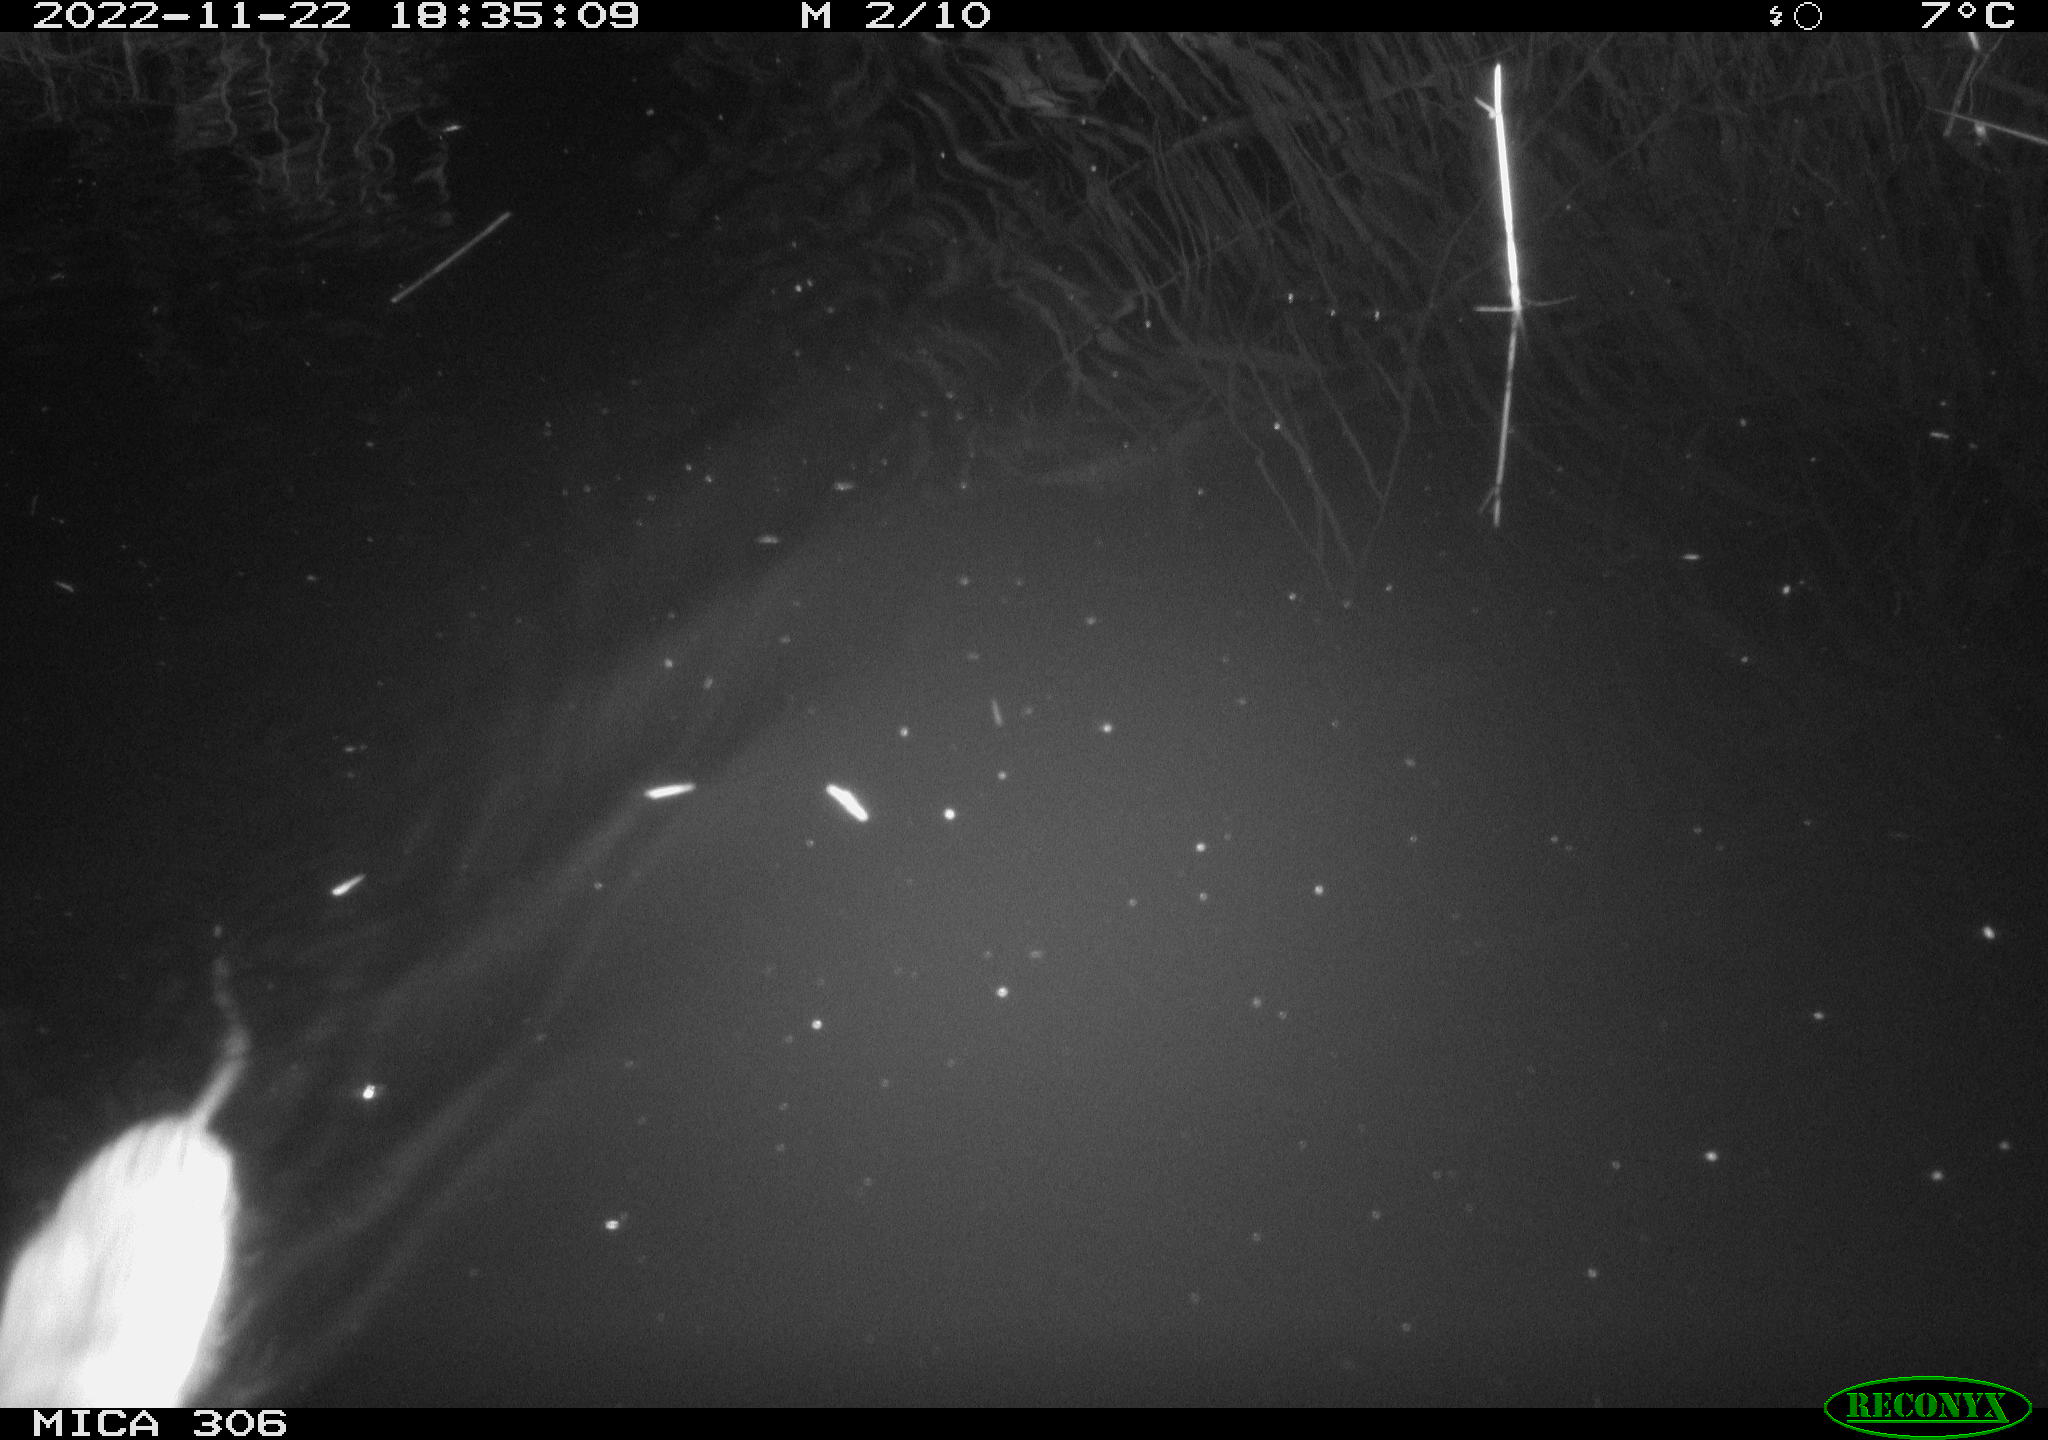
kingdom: Animalia
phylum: Chordata
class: Mammalia
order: Rodentia
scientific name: Rodentia
